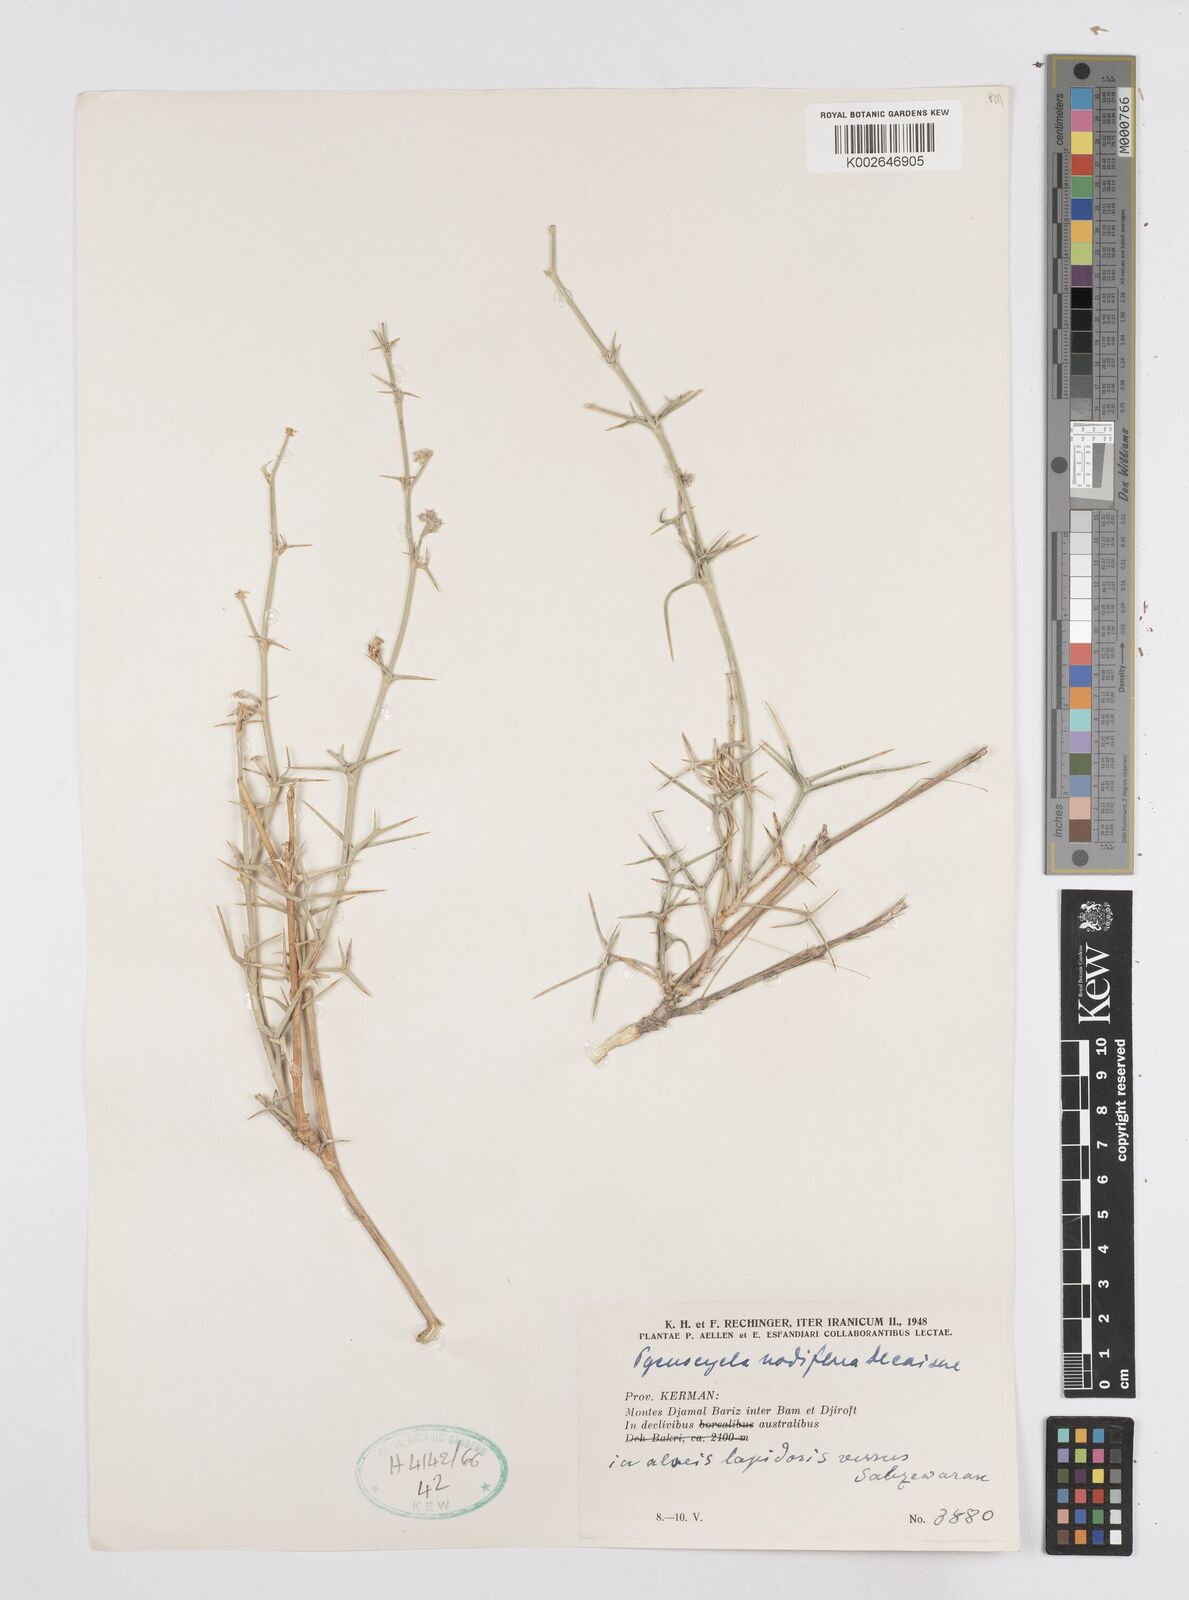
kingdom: Plantae
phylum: Tracheophyta
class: Magnoliopsida
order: Apiales
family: Apiaceae
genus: Pycnocycla
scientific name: Pycnocycla nodiflora
